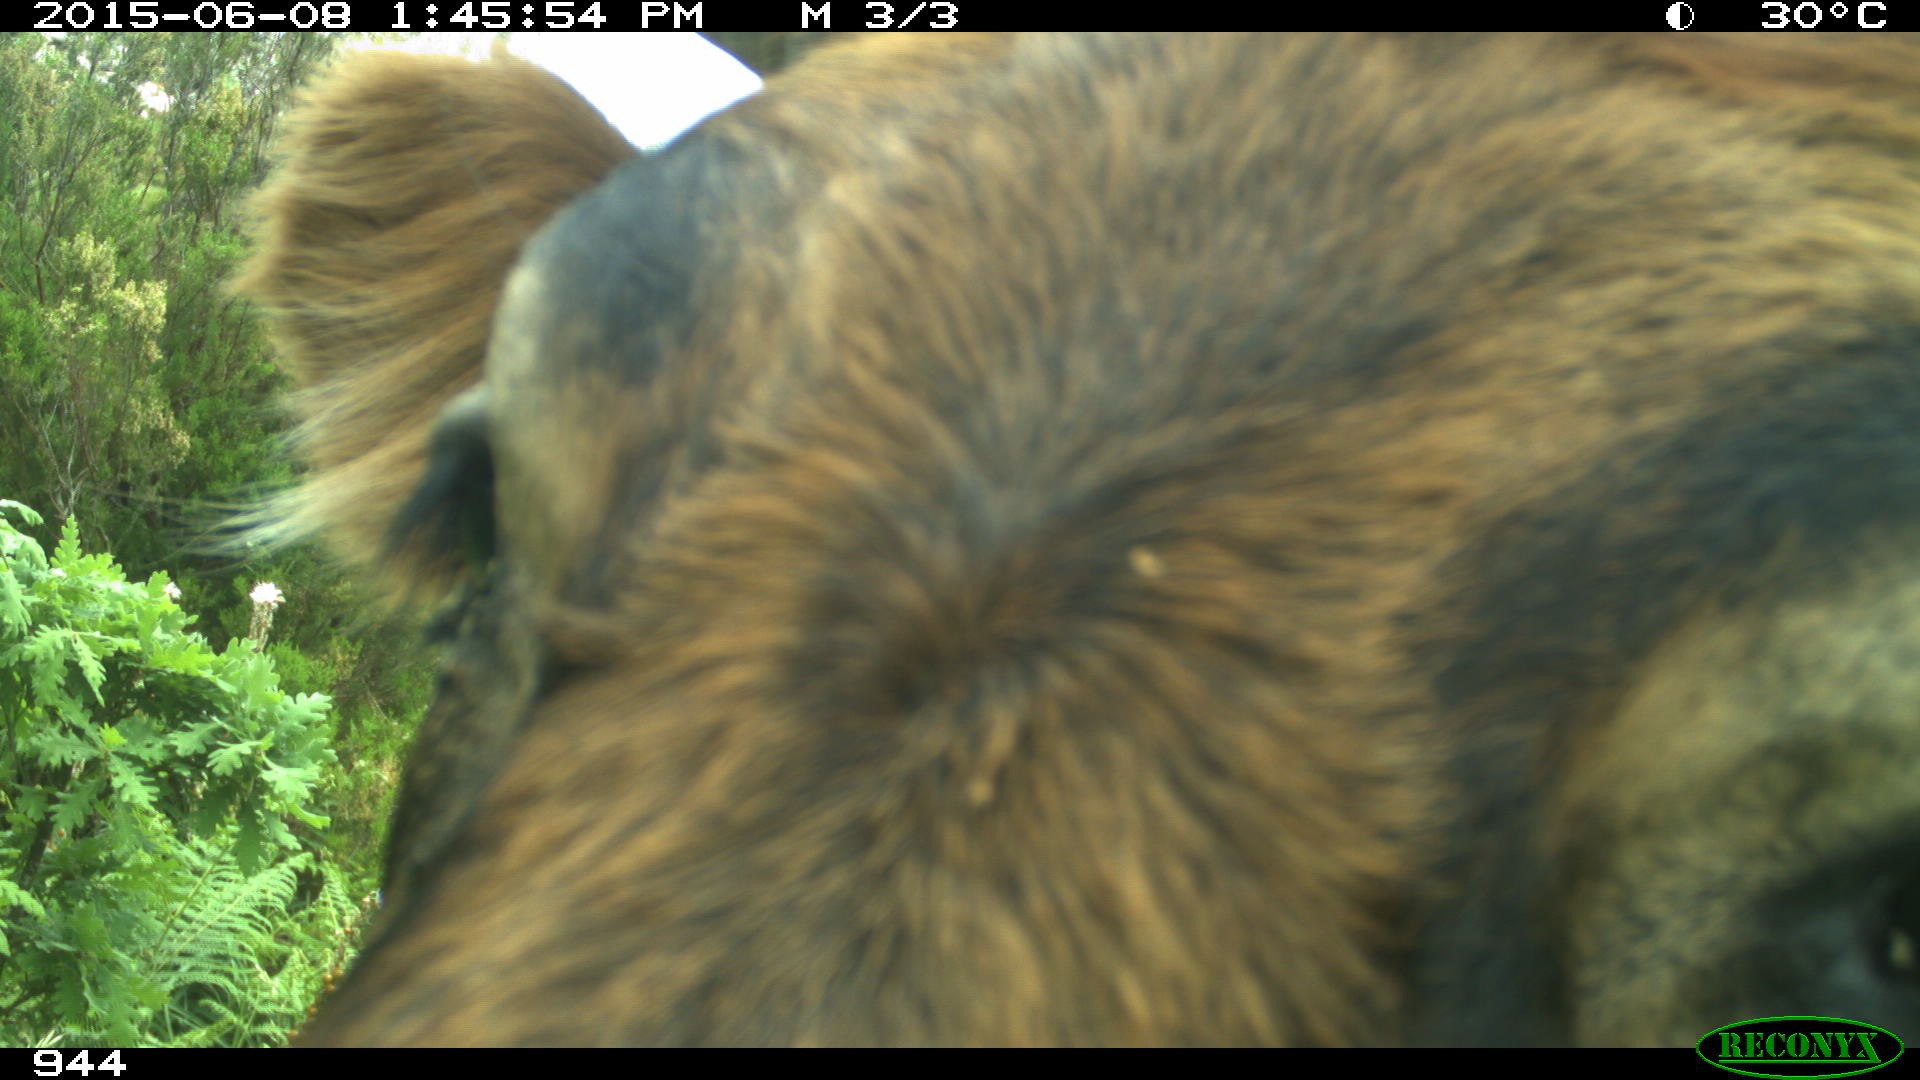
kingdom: Animalia
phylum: Chordata
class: Mammalia
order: Artiodactyla
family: Bovidae
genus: Bos
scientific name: Bos taurus
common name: Domesticated cattle
